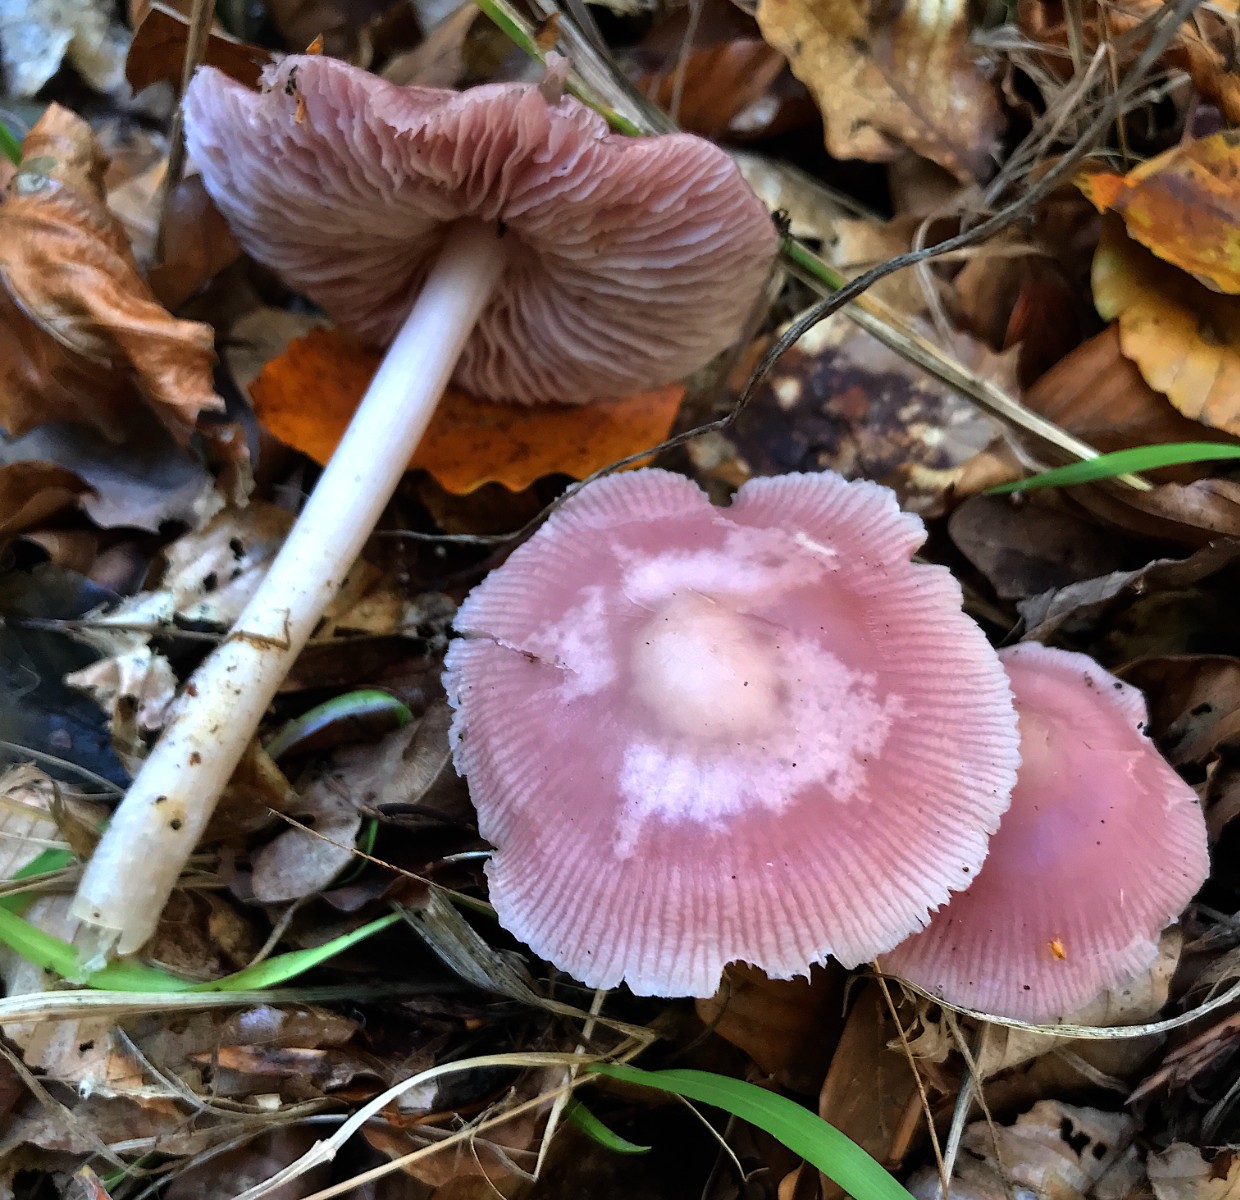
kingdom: Fungi
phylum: Basidiomycota
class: Agaricomycetes
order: Agaricales
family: Mycenaceae
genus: Mycena
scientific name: Mycena rosea
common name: rosa huesvamp
